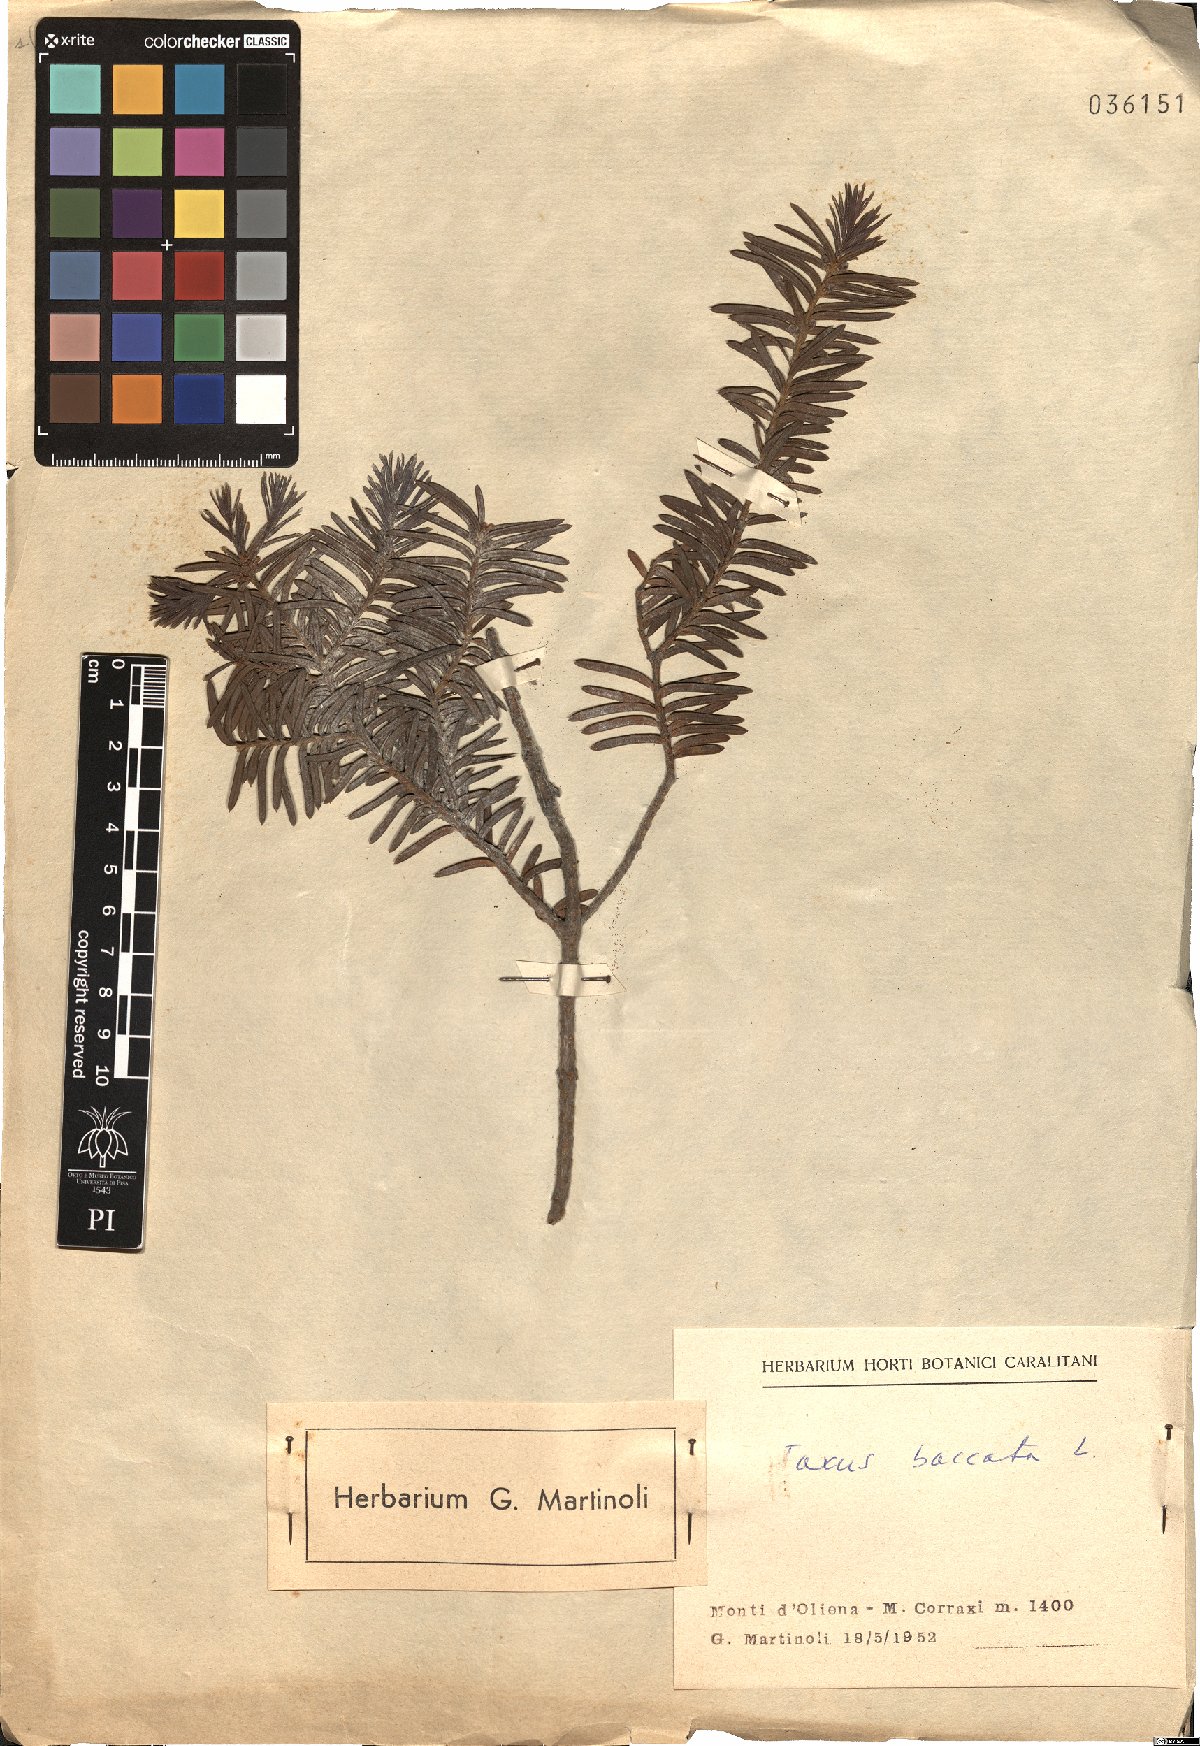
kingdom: Plantae
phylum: Tracheophyta
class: Pinopsida
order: Pinales
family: Taxaceae
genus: Taxus
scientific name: Taxus baccata
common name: Yew
